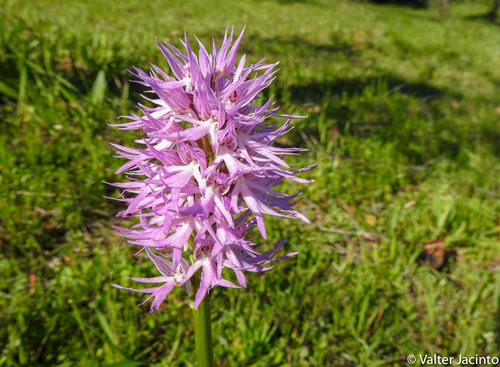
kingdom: Plantae
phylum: Tracheophyta
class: Liliopsida
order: Asparagales
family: Orchidaceae
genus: Orchis
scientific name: Orchis italica
